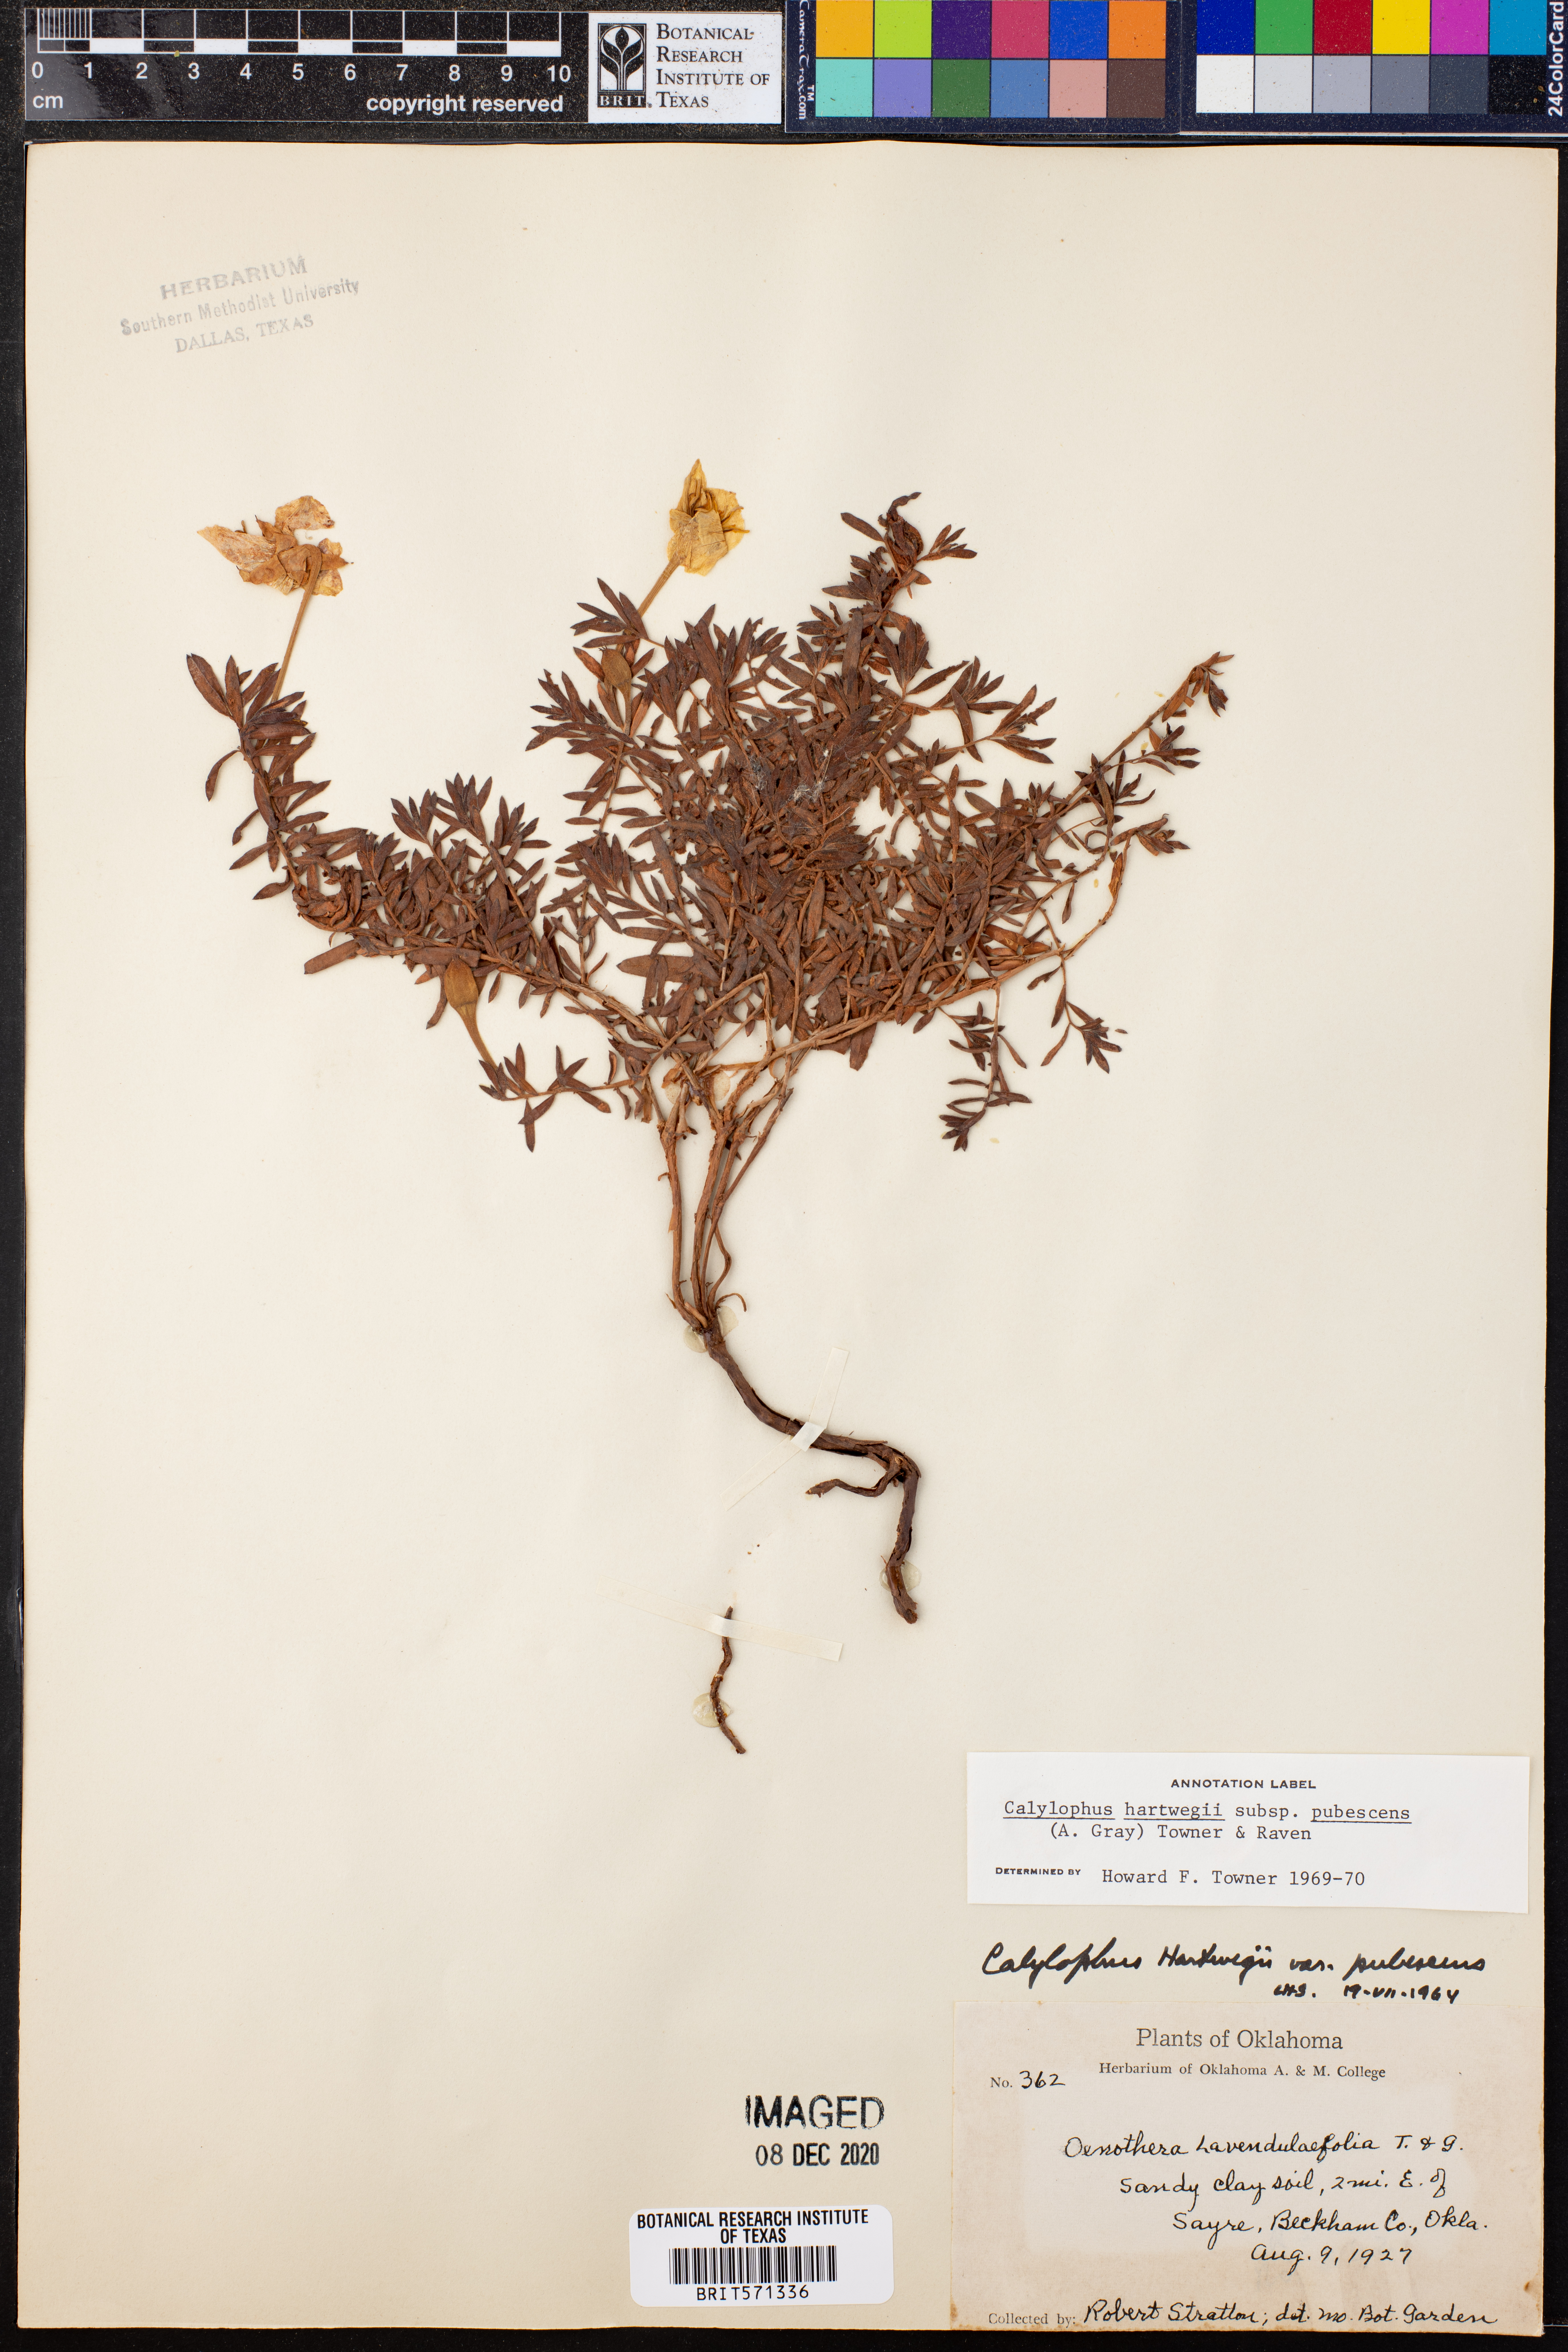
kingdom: Plantae
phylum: Tracheophyta
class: Magnoliopsida
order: Myrtales
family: Onagraceae
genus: Oenothera
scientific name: Oenothera hartwegii
